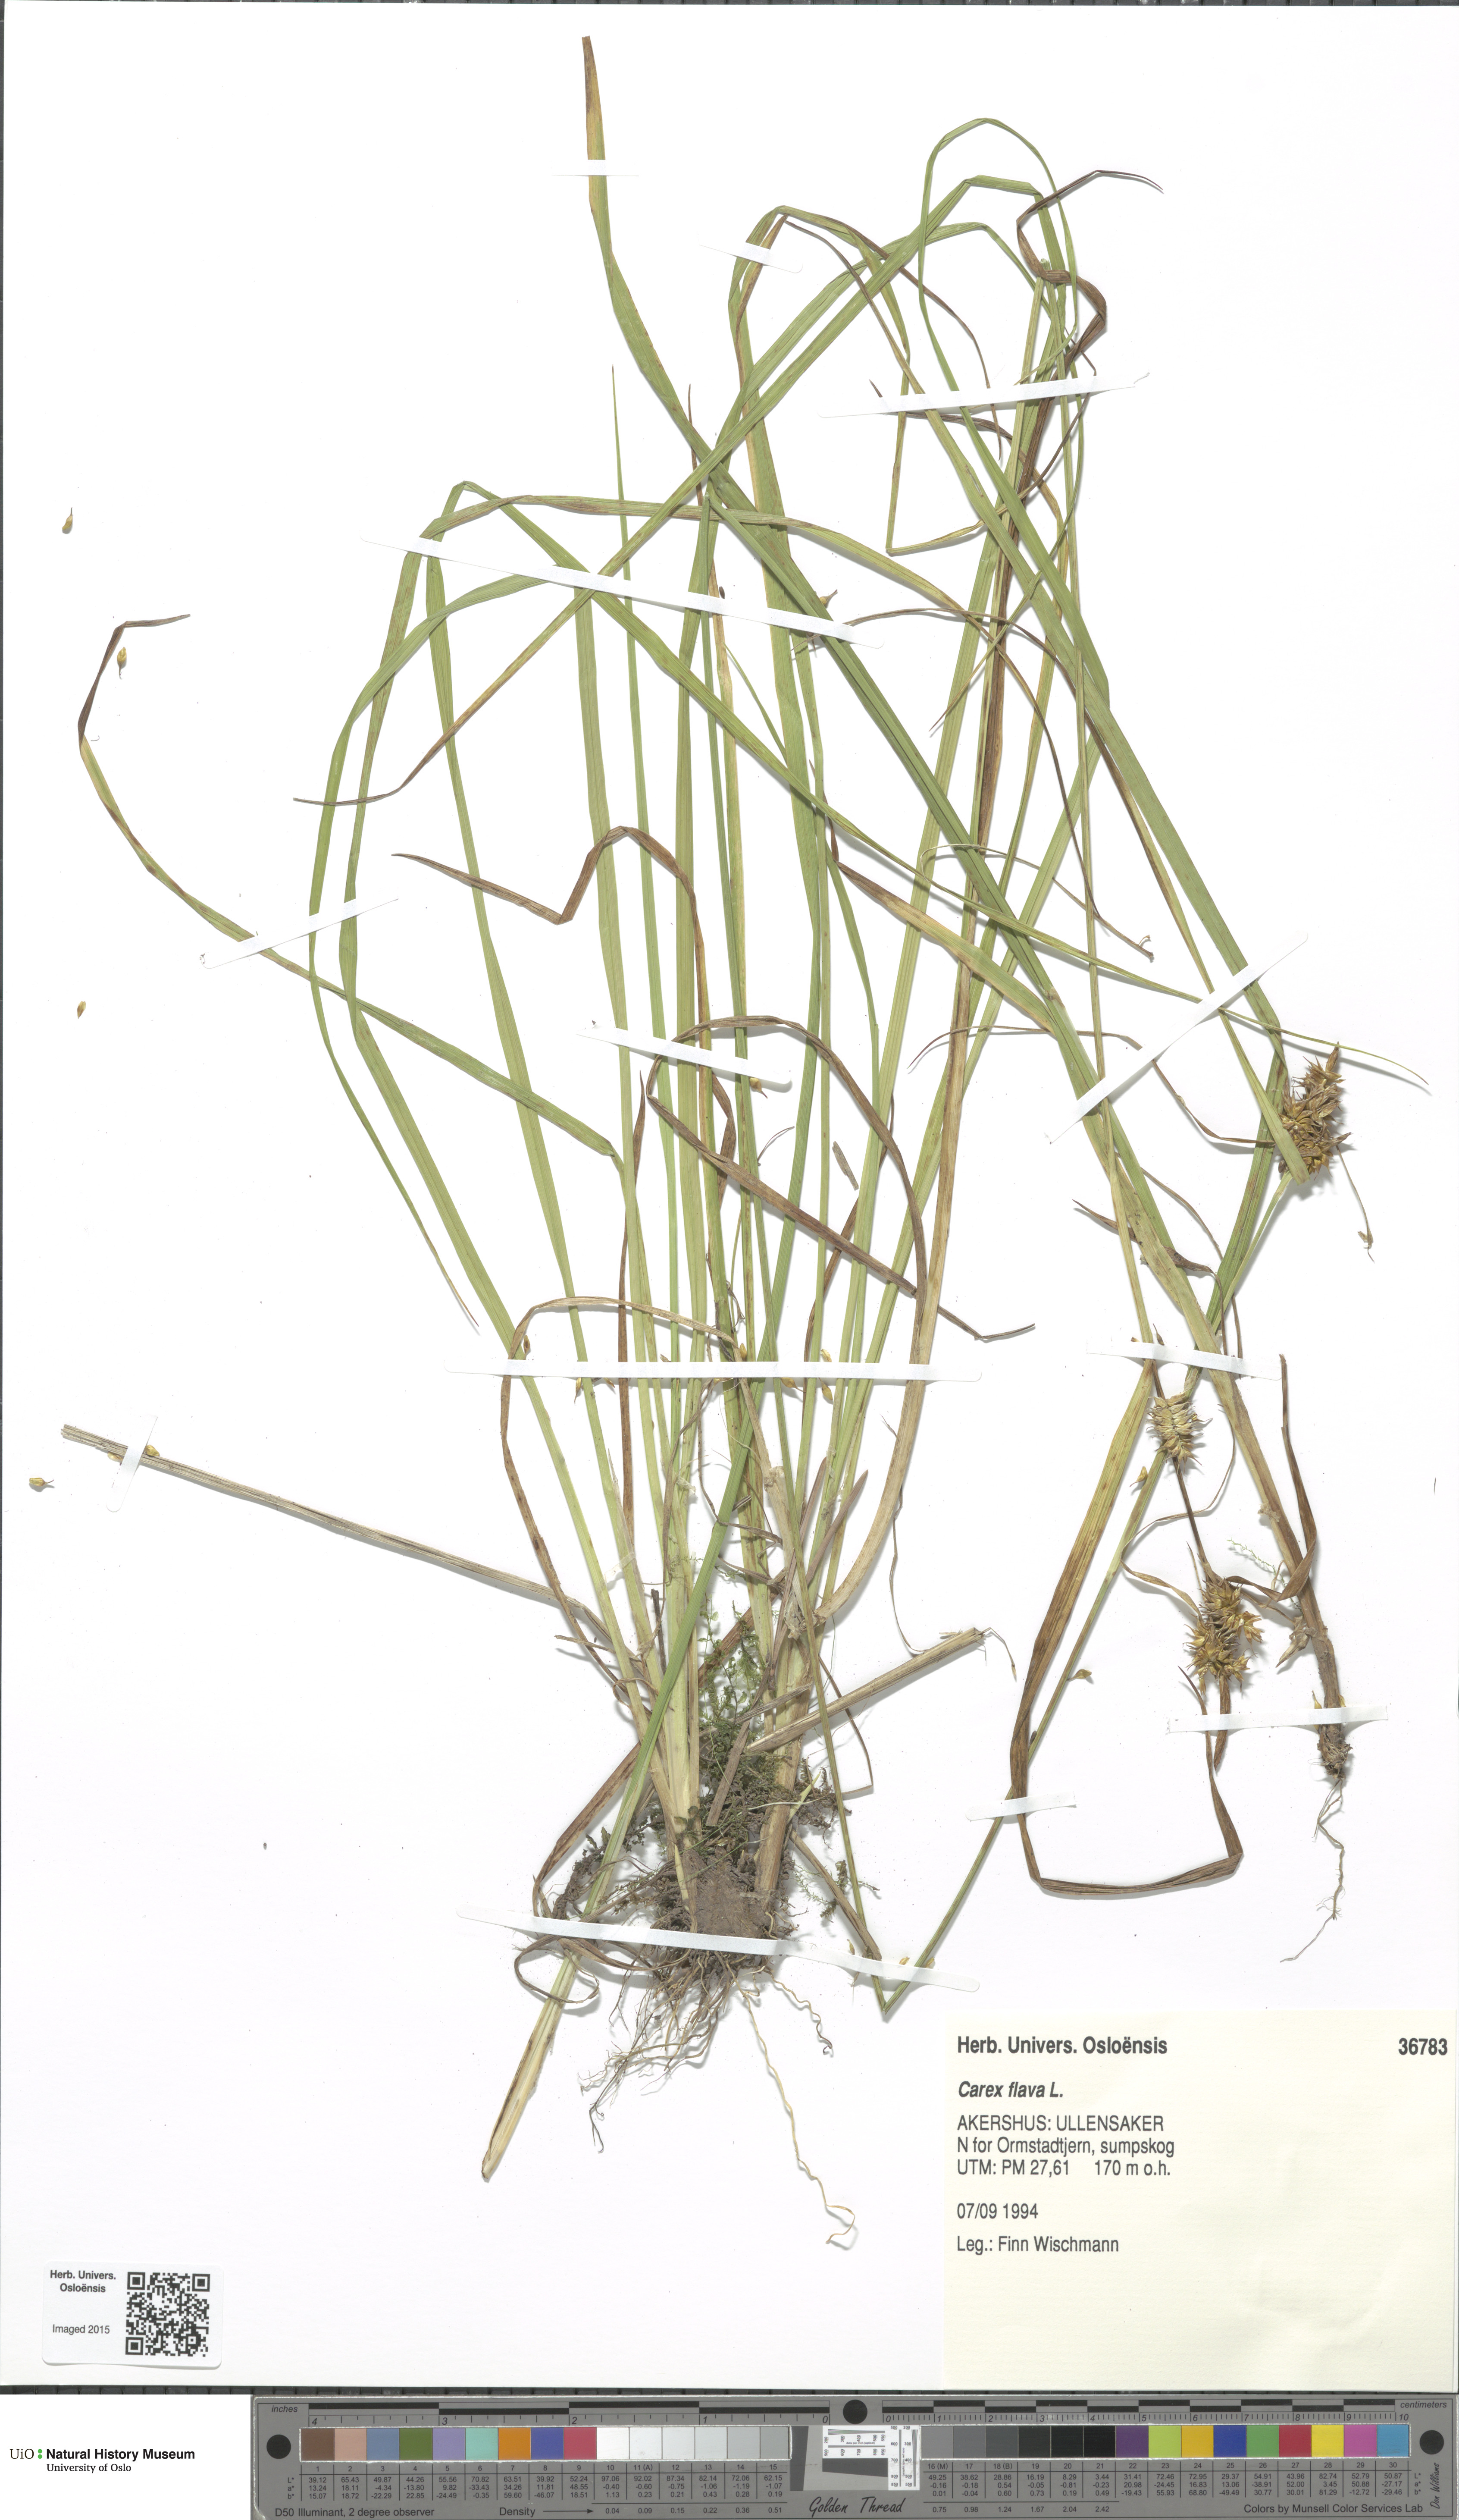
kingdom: Plantae
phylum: Tracheophyta
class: Liliopsida
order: Poales
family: Cyperaceae
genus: Carex
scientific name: Carex flava
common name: Large yellow-sedge
